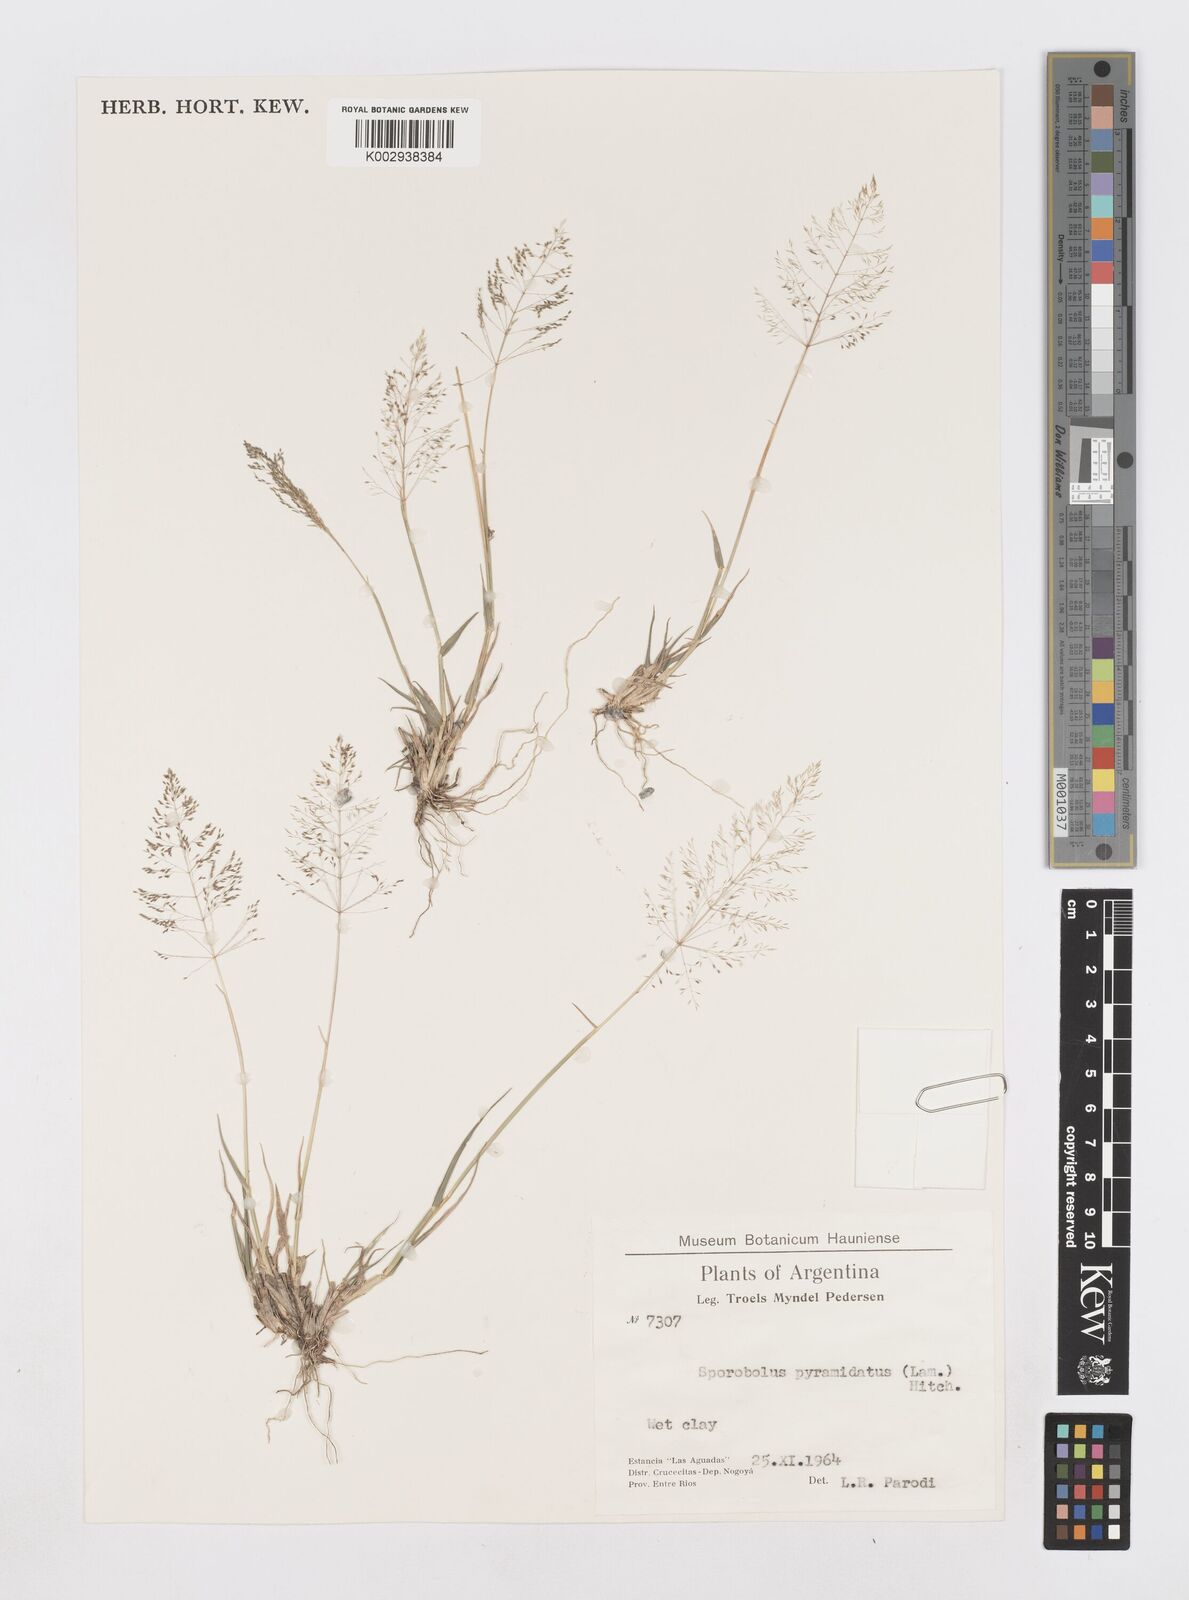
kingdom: Plantae
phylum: Tracheophyta
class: Liliopsida
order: Poales
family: Poaceae
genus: Sporobolus
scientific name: Sporobolus pyramidatus
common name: Whorled dropseed
